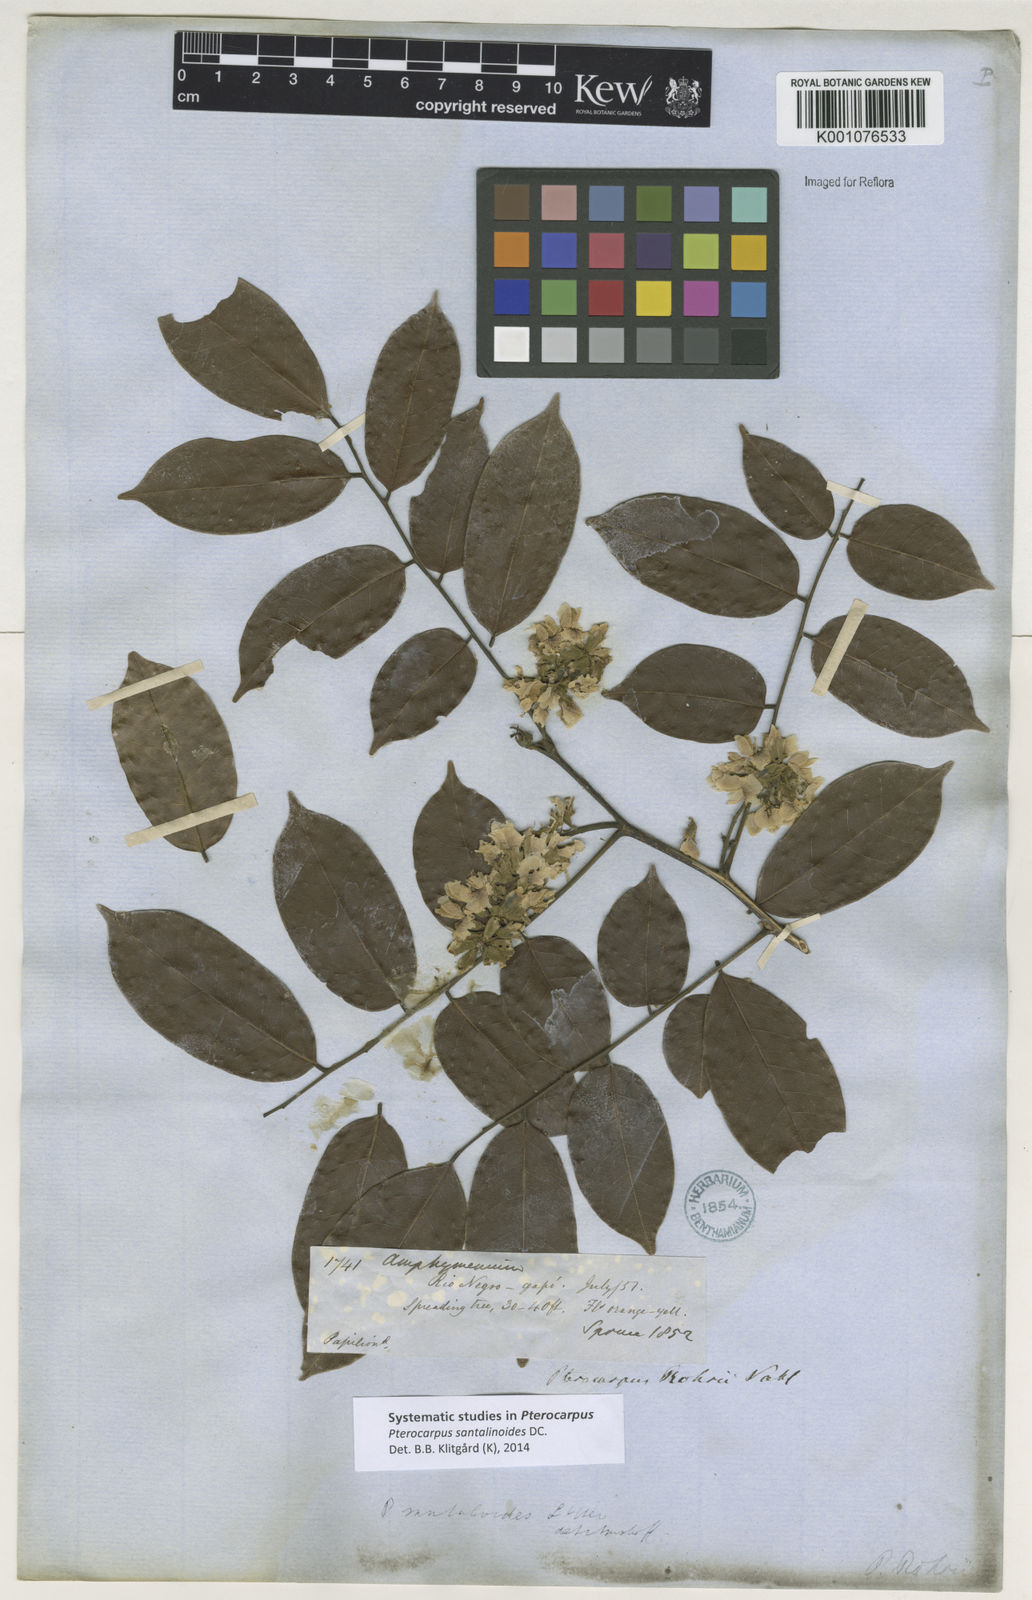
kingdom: Plantae
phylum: Tracheophyta
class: Magnoliopsida
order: Fabales
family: Fabaceae
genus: Pterocarpus
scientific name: Pterocarpus santalinoides
